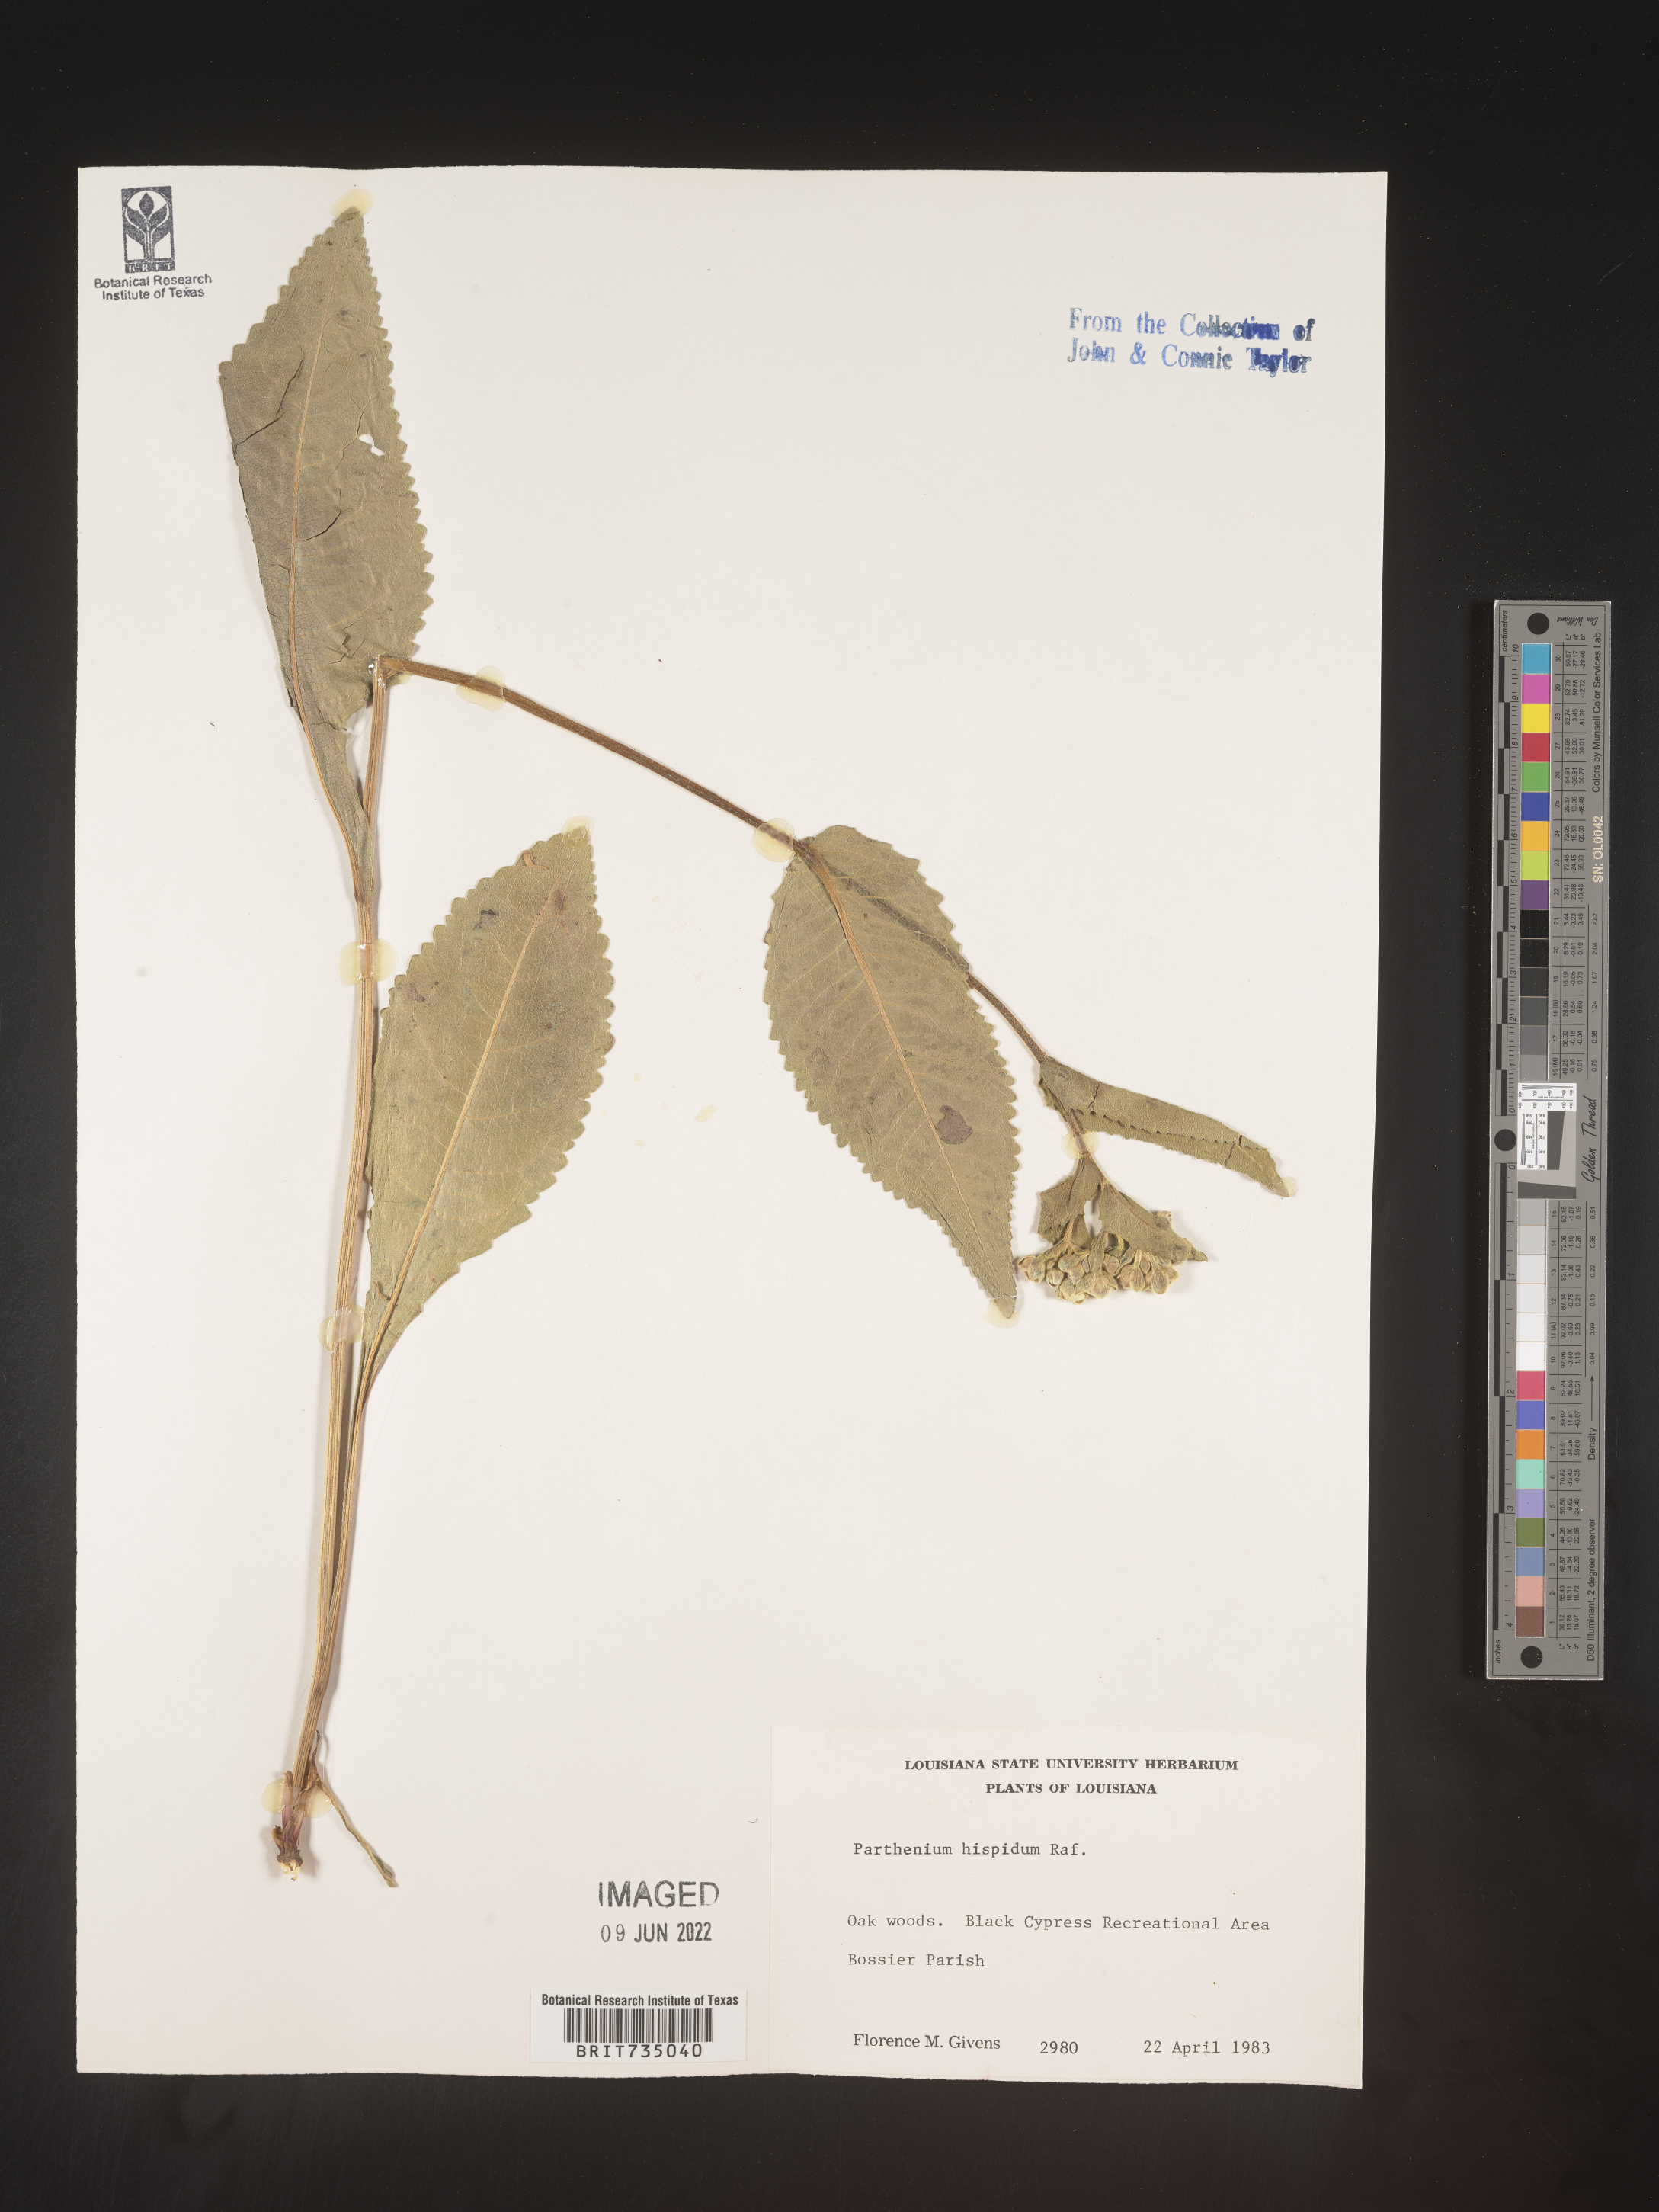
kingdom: Plantae
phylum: Tracheophyta
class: Magnoliopsida
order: Asterales
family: Asteraceae
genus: Parthenium
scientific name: Parthenium hispidum
